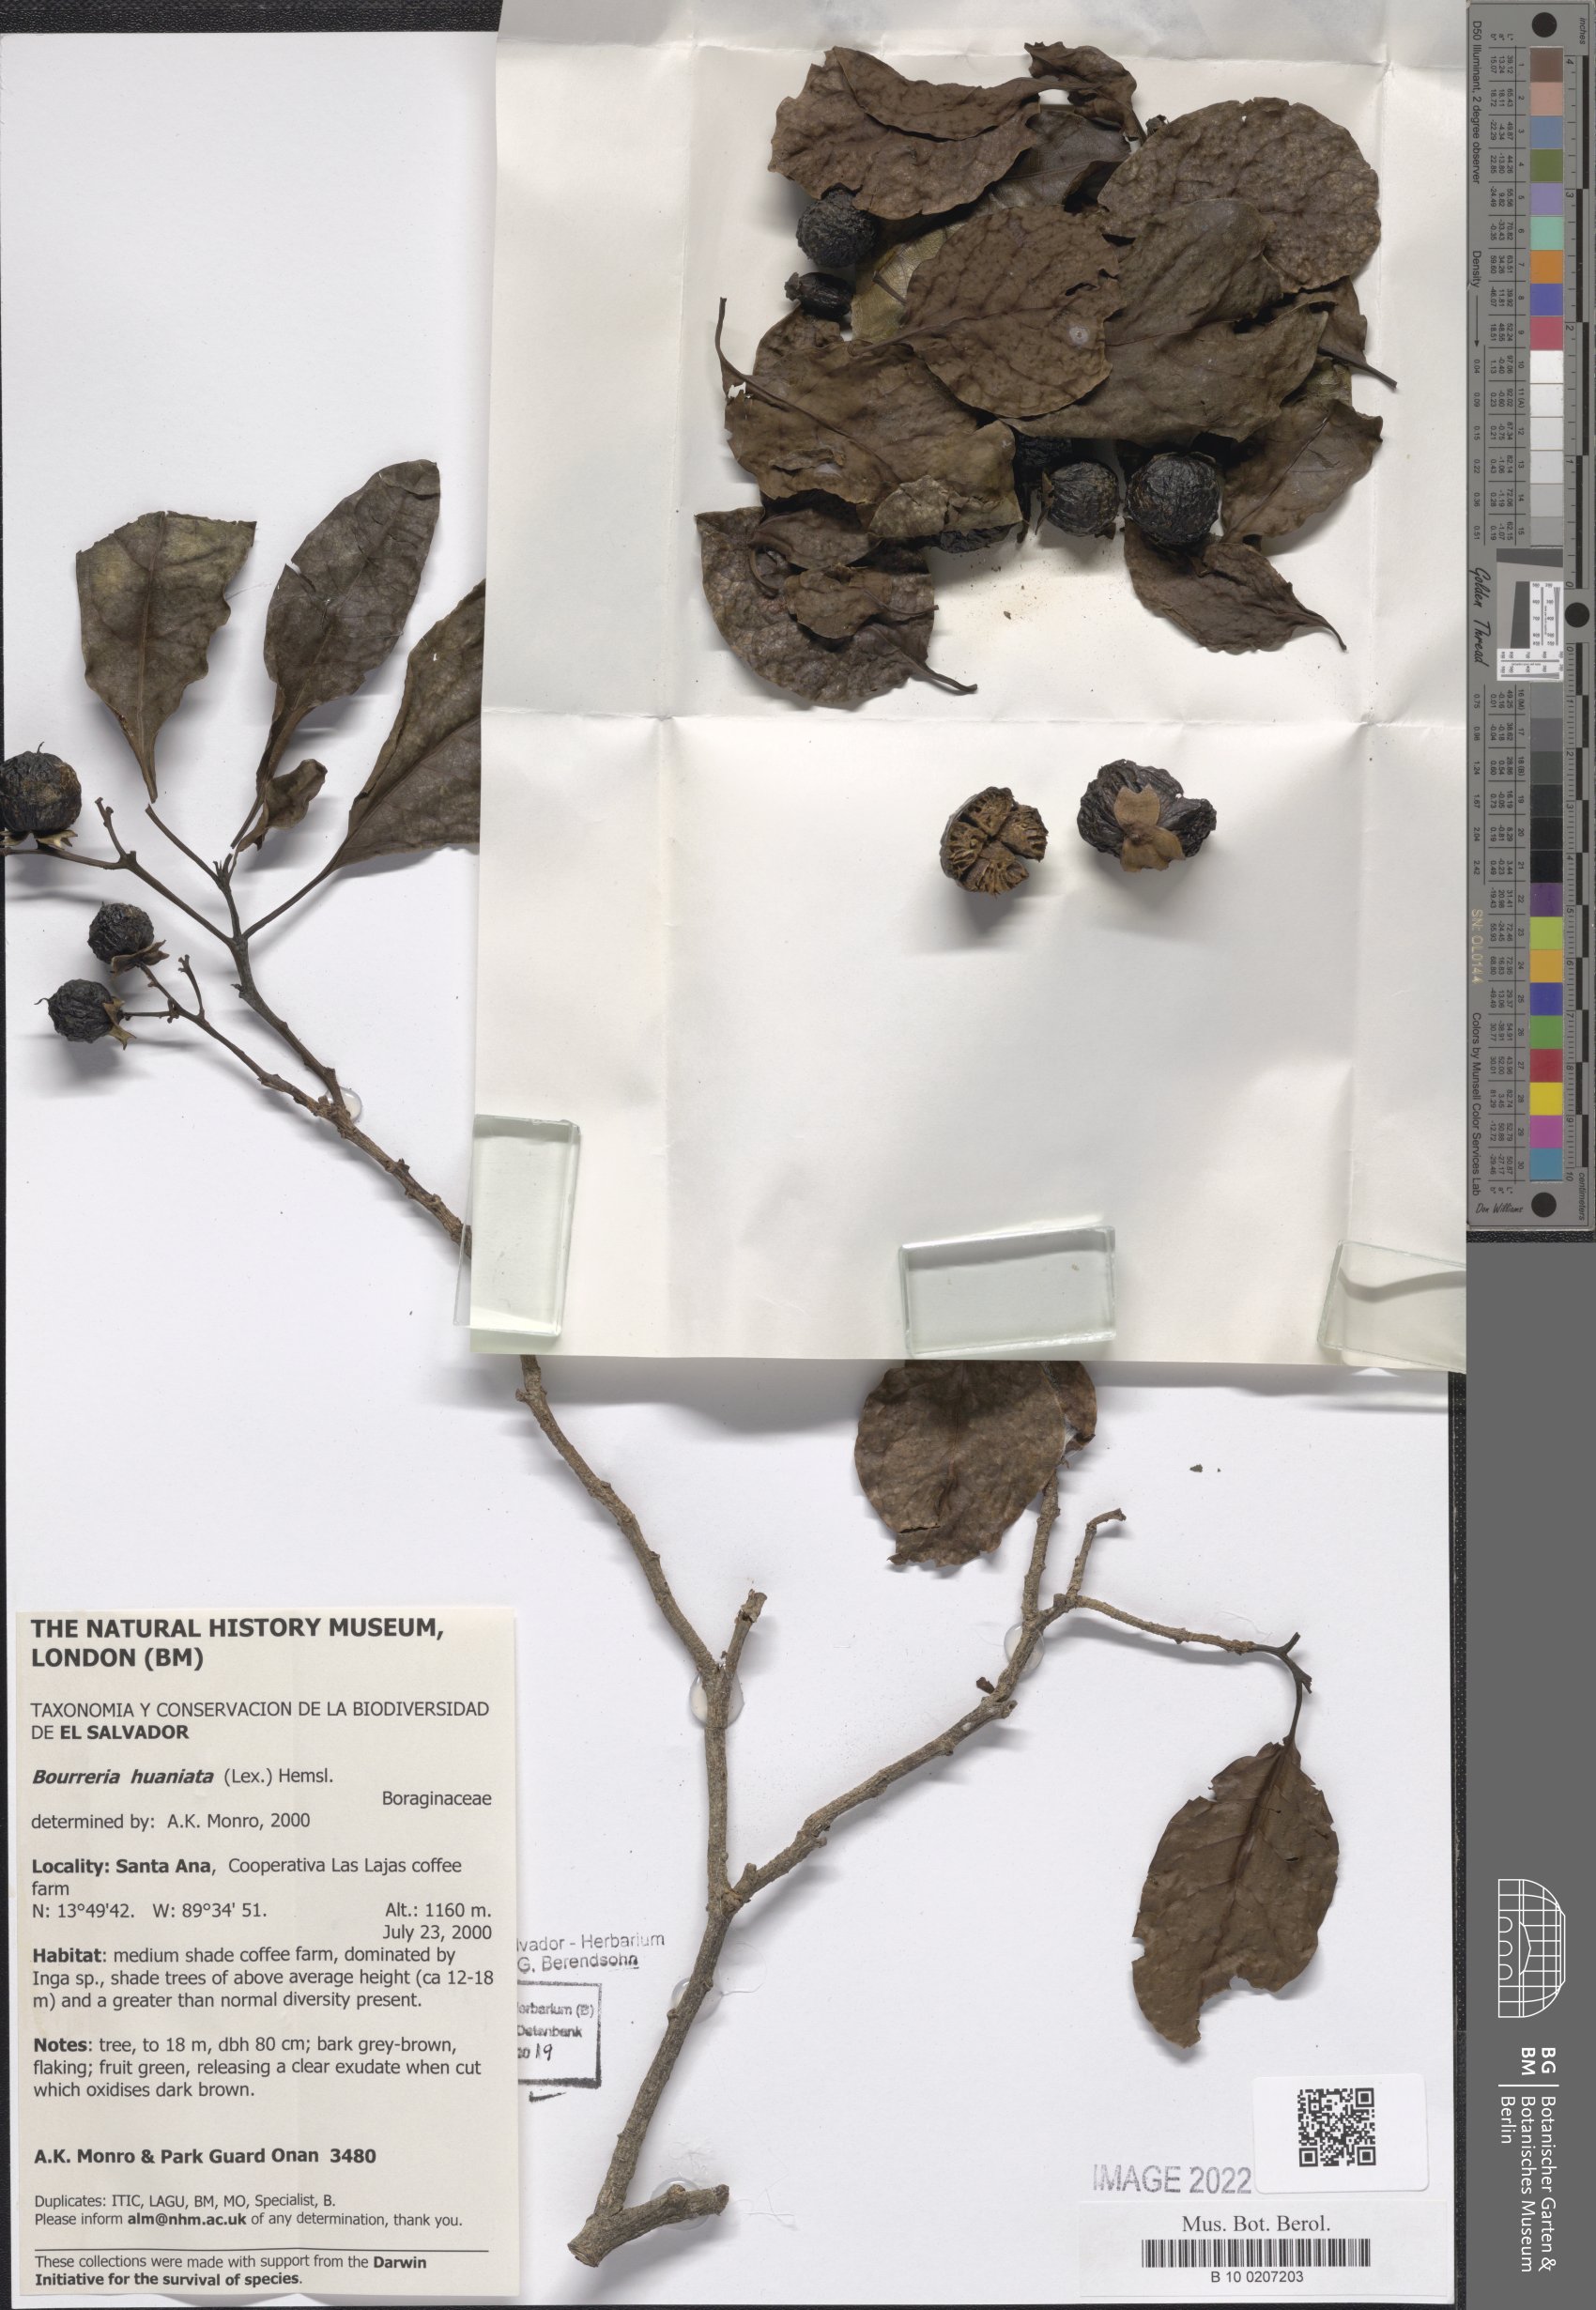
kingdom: Plantae
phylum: Tracheophyta
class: Magnoliopsida
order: Boraginales
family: Ehretiaceae
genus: Bourreria
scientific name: Bourreria huanita
